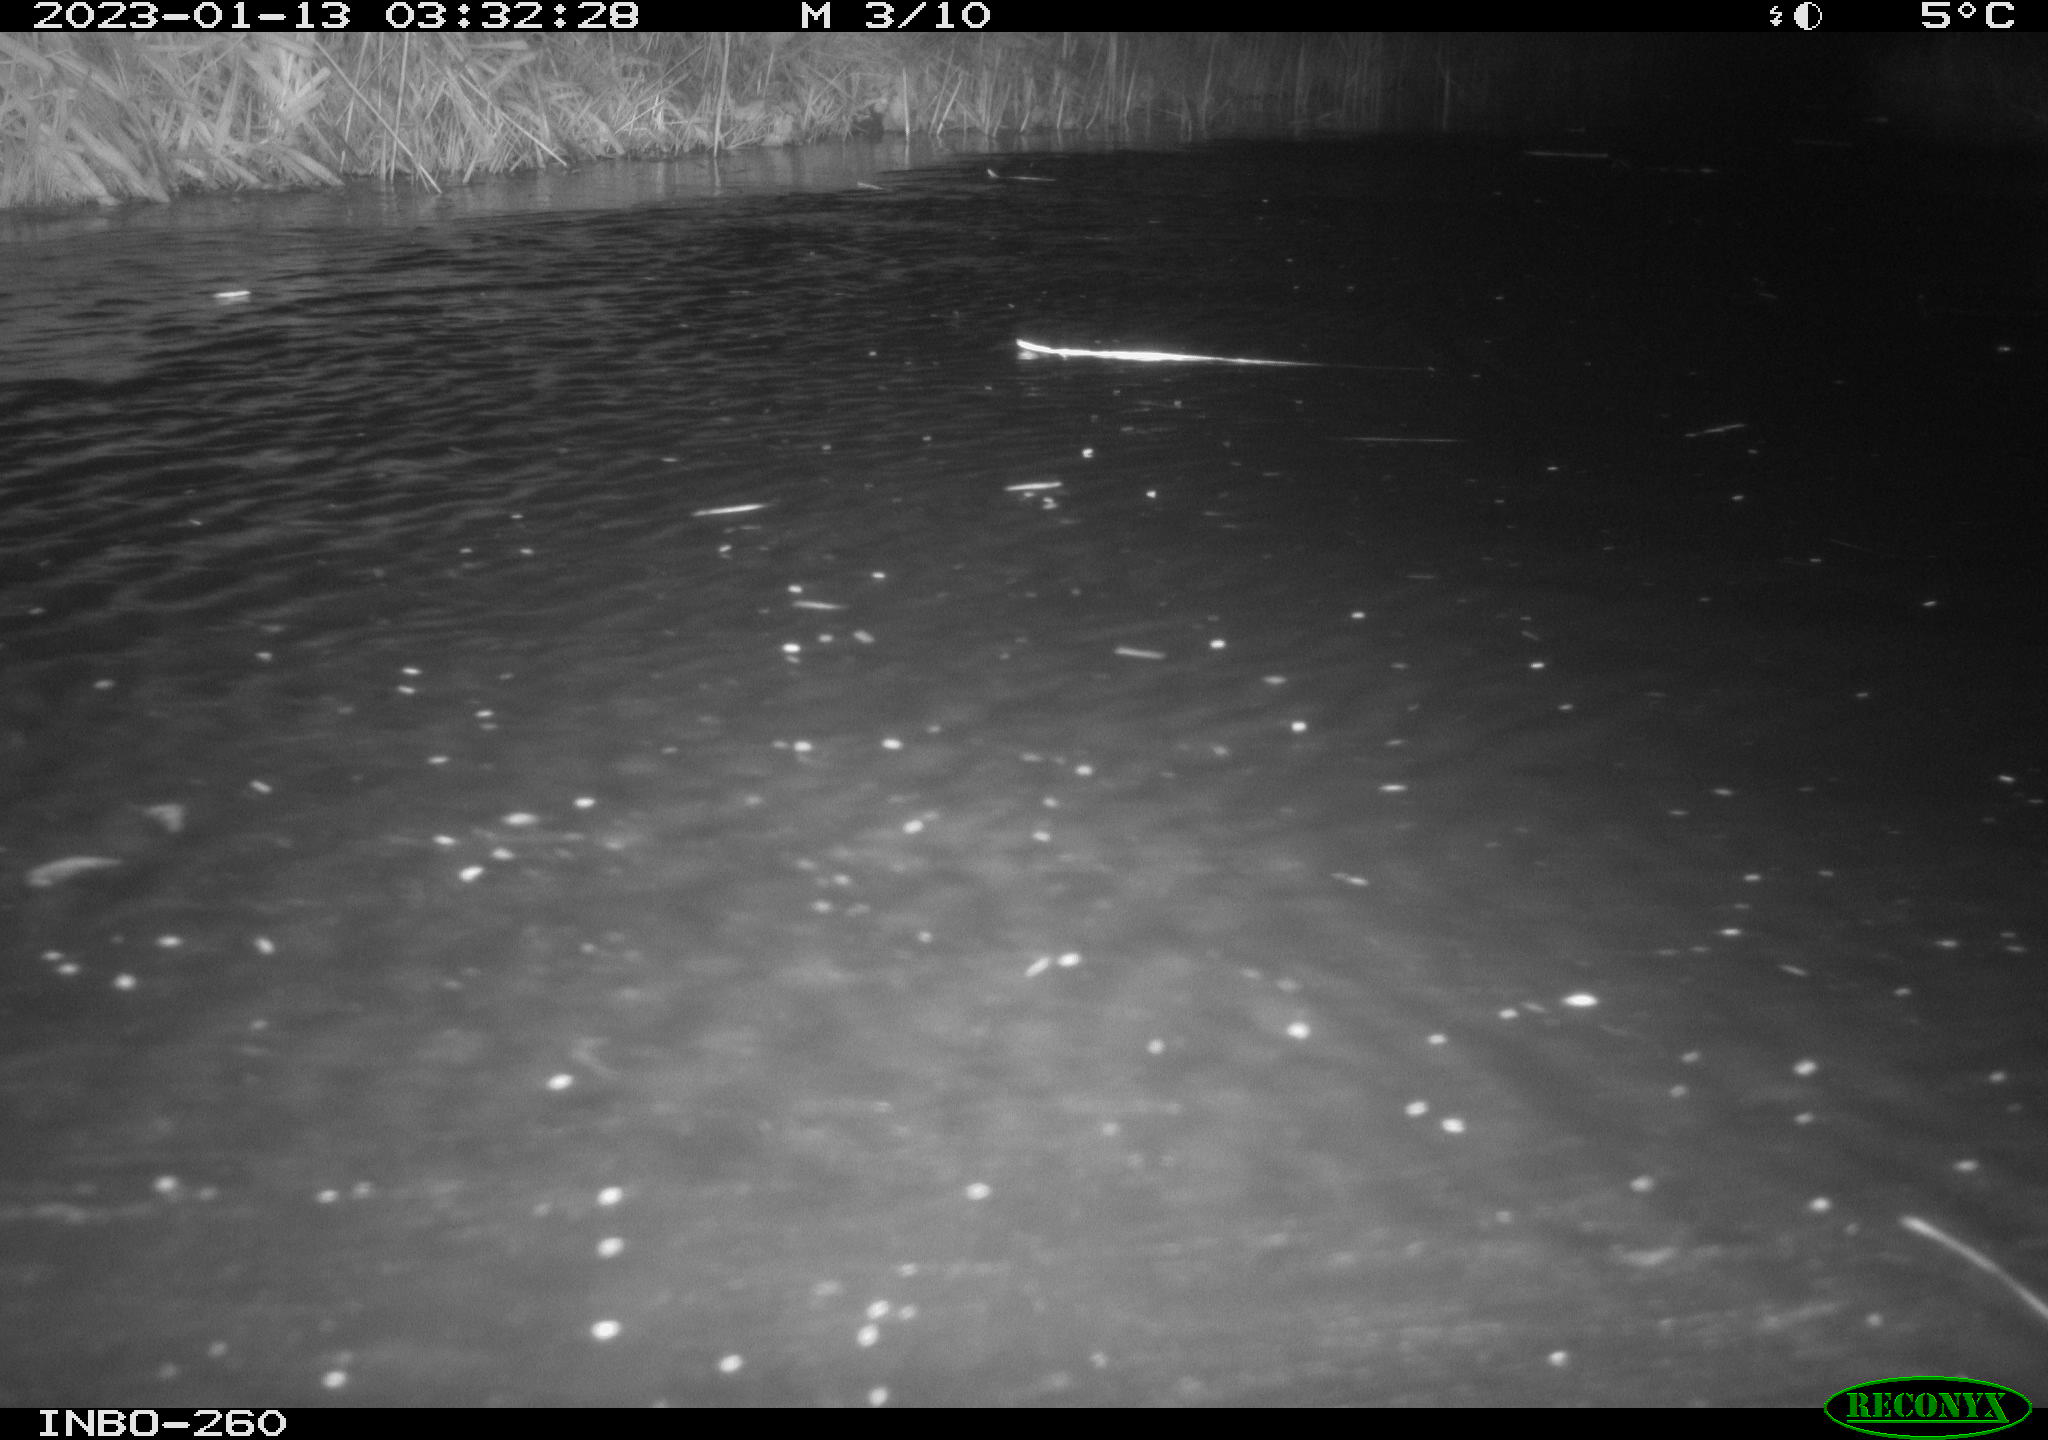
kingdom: Animalia
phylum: Chordata
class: Mammalia
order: Rodentia
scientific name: Rodentia
